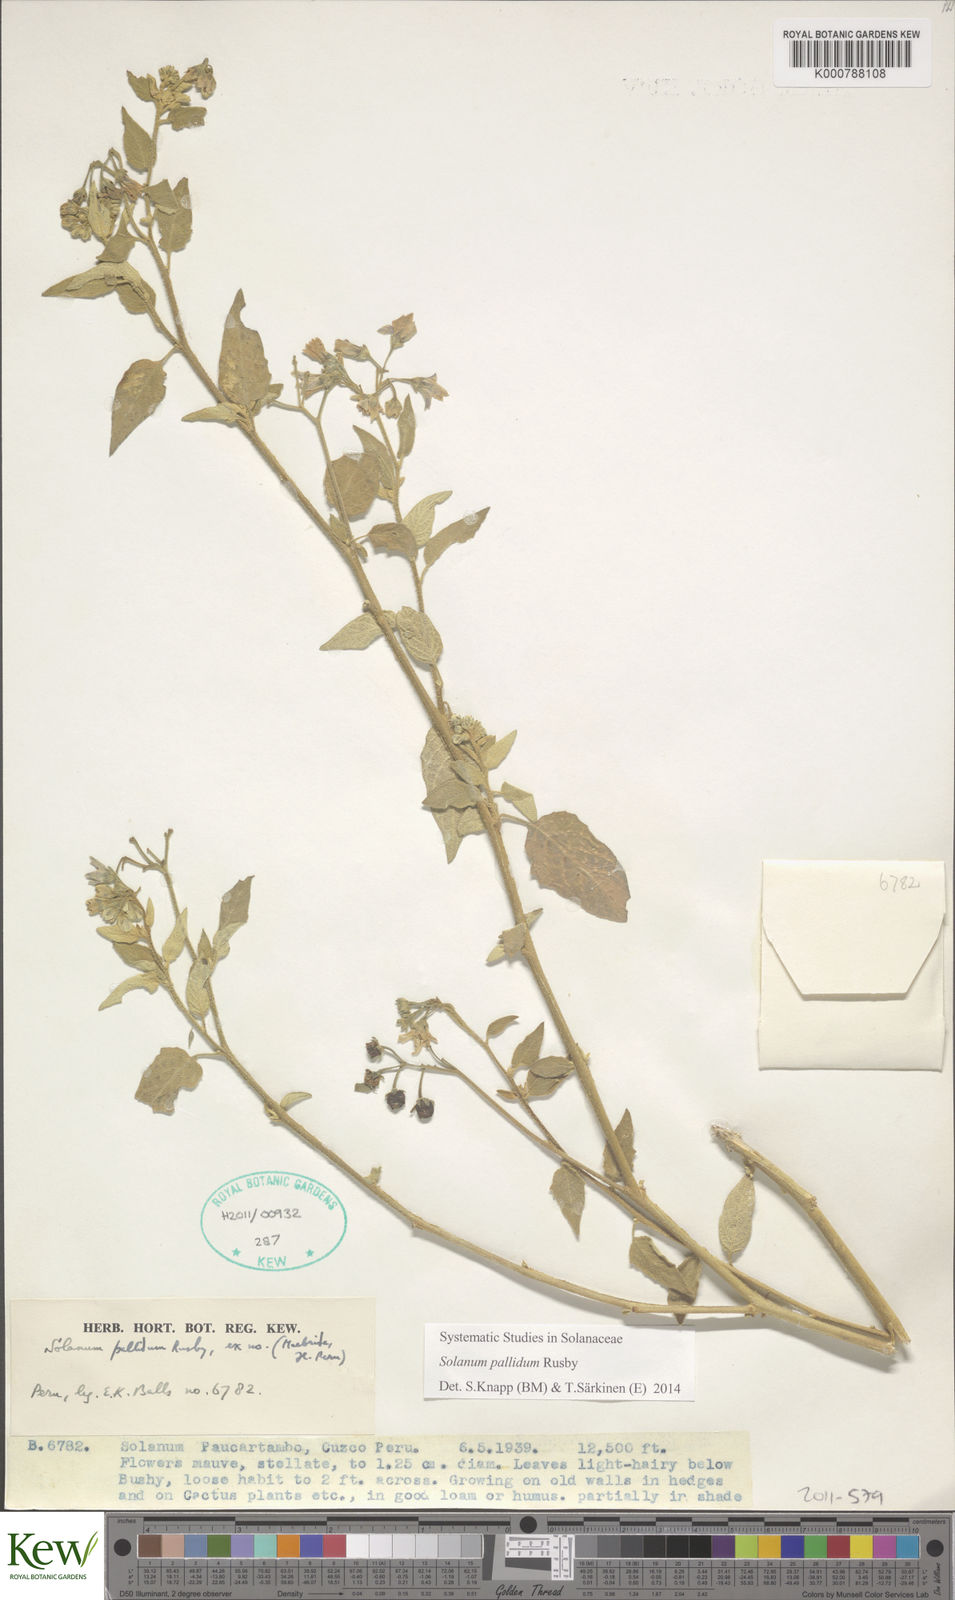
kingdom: Plantae
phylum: Tracheophyta
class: Magnoliopsida
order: Solanales
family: Solanaceae
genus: Solanum
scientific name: Solanum pallidum
